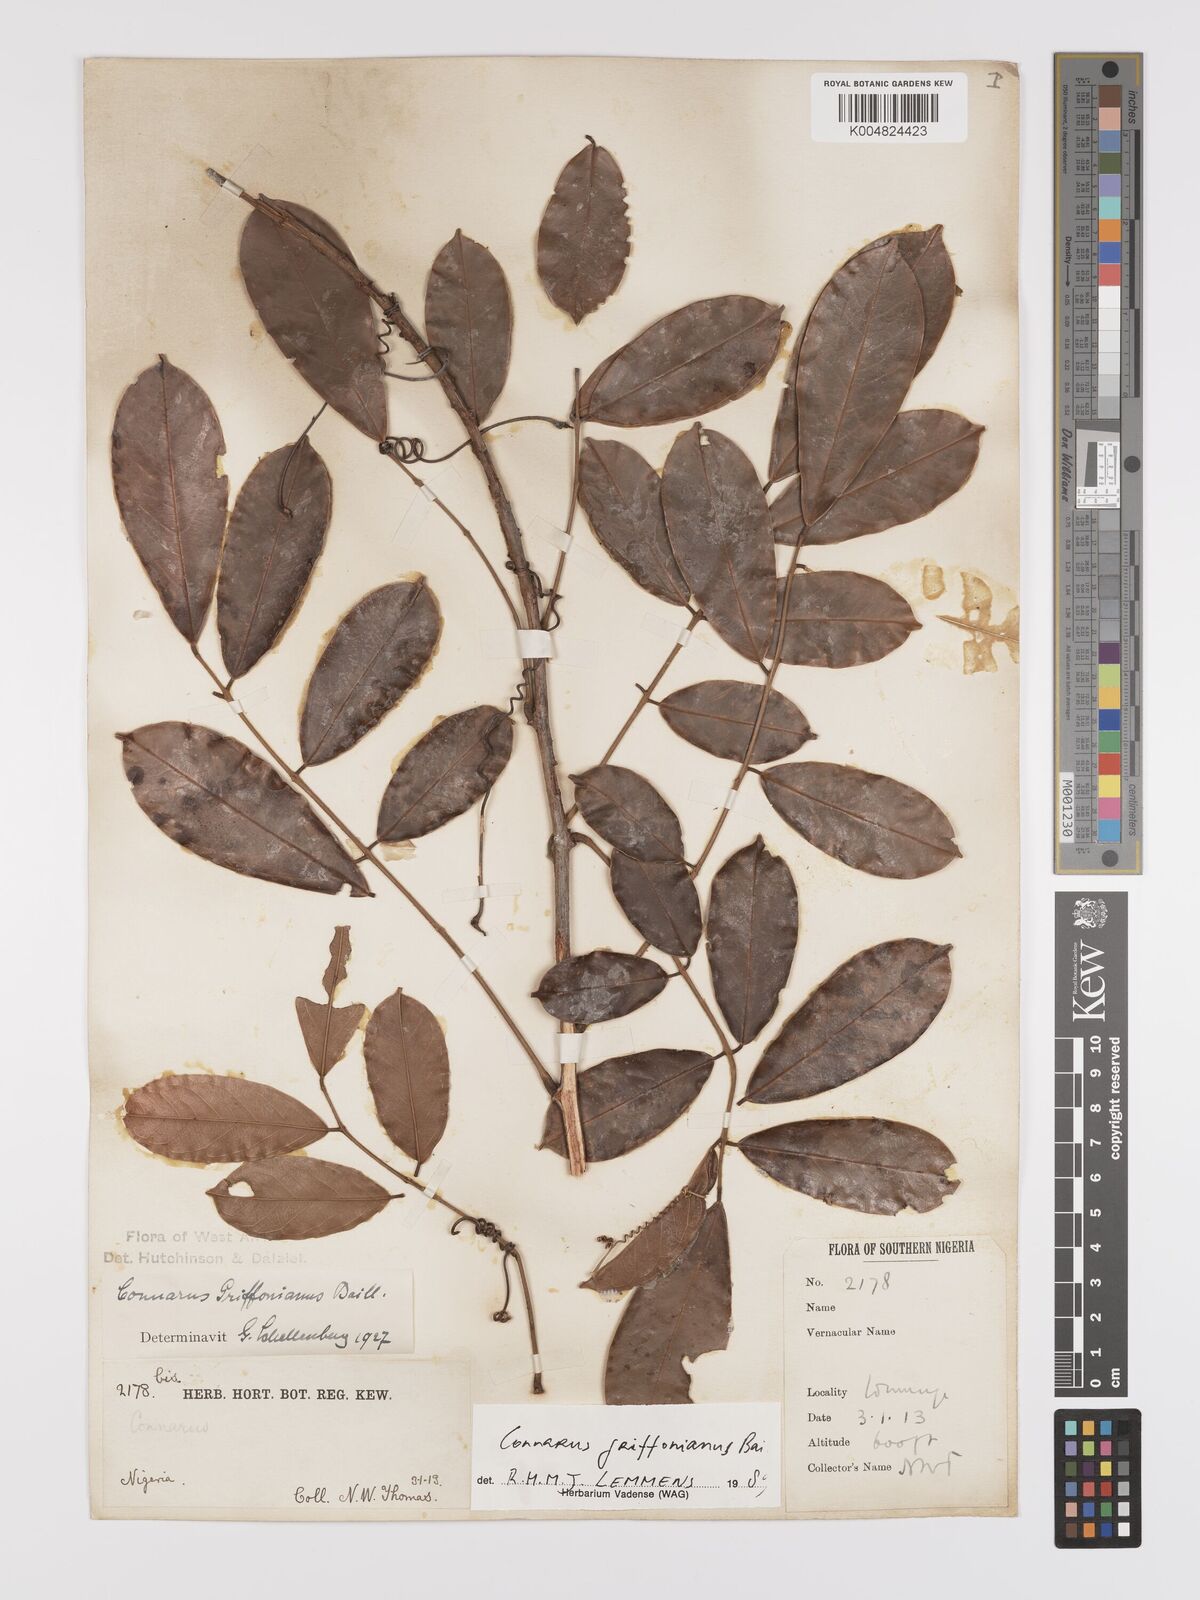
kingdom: Plantae
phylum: Tracheophyta
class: Magnoliopsida
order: Oxalidales
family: Connaraceae
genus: Connarus
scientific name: Connarus griffonianus
